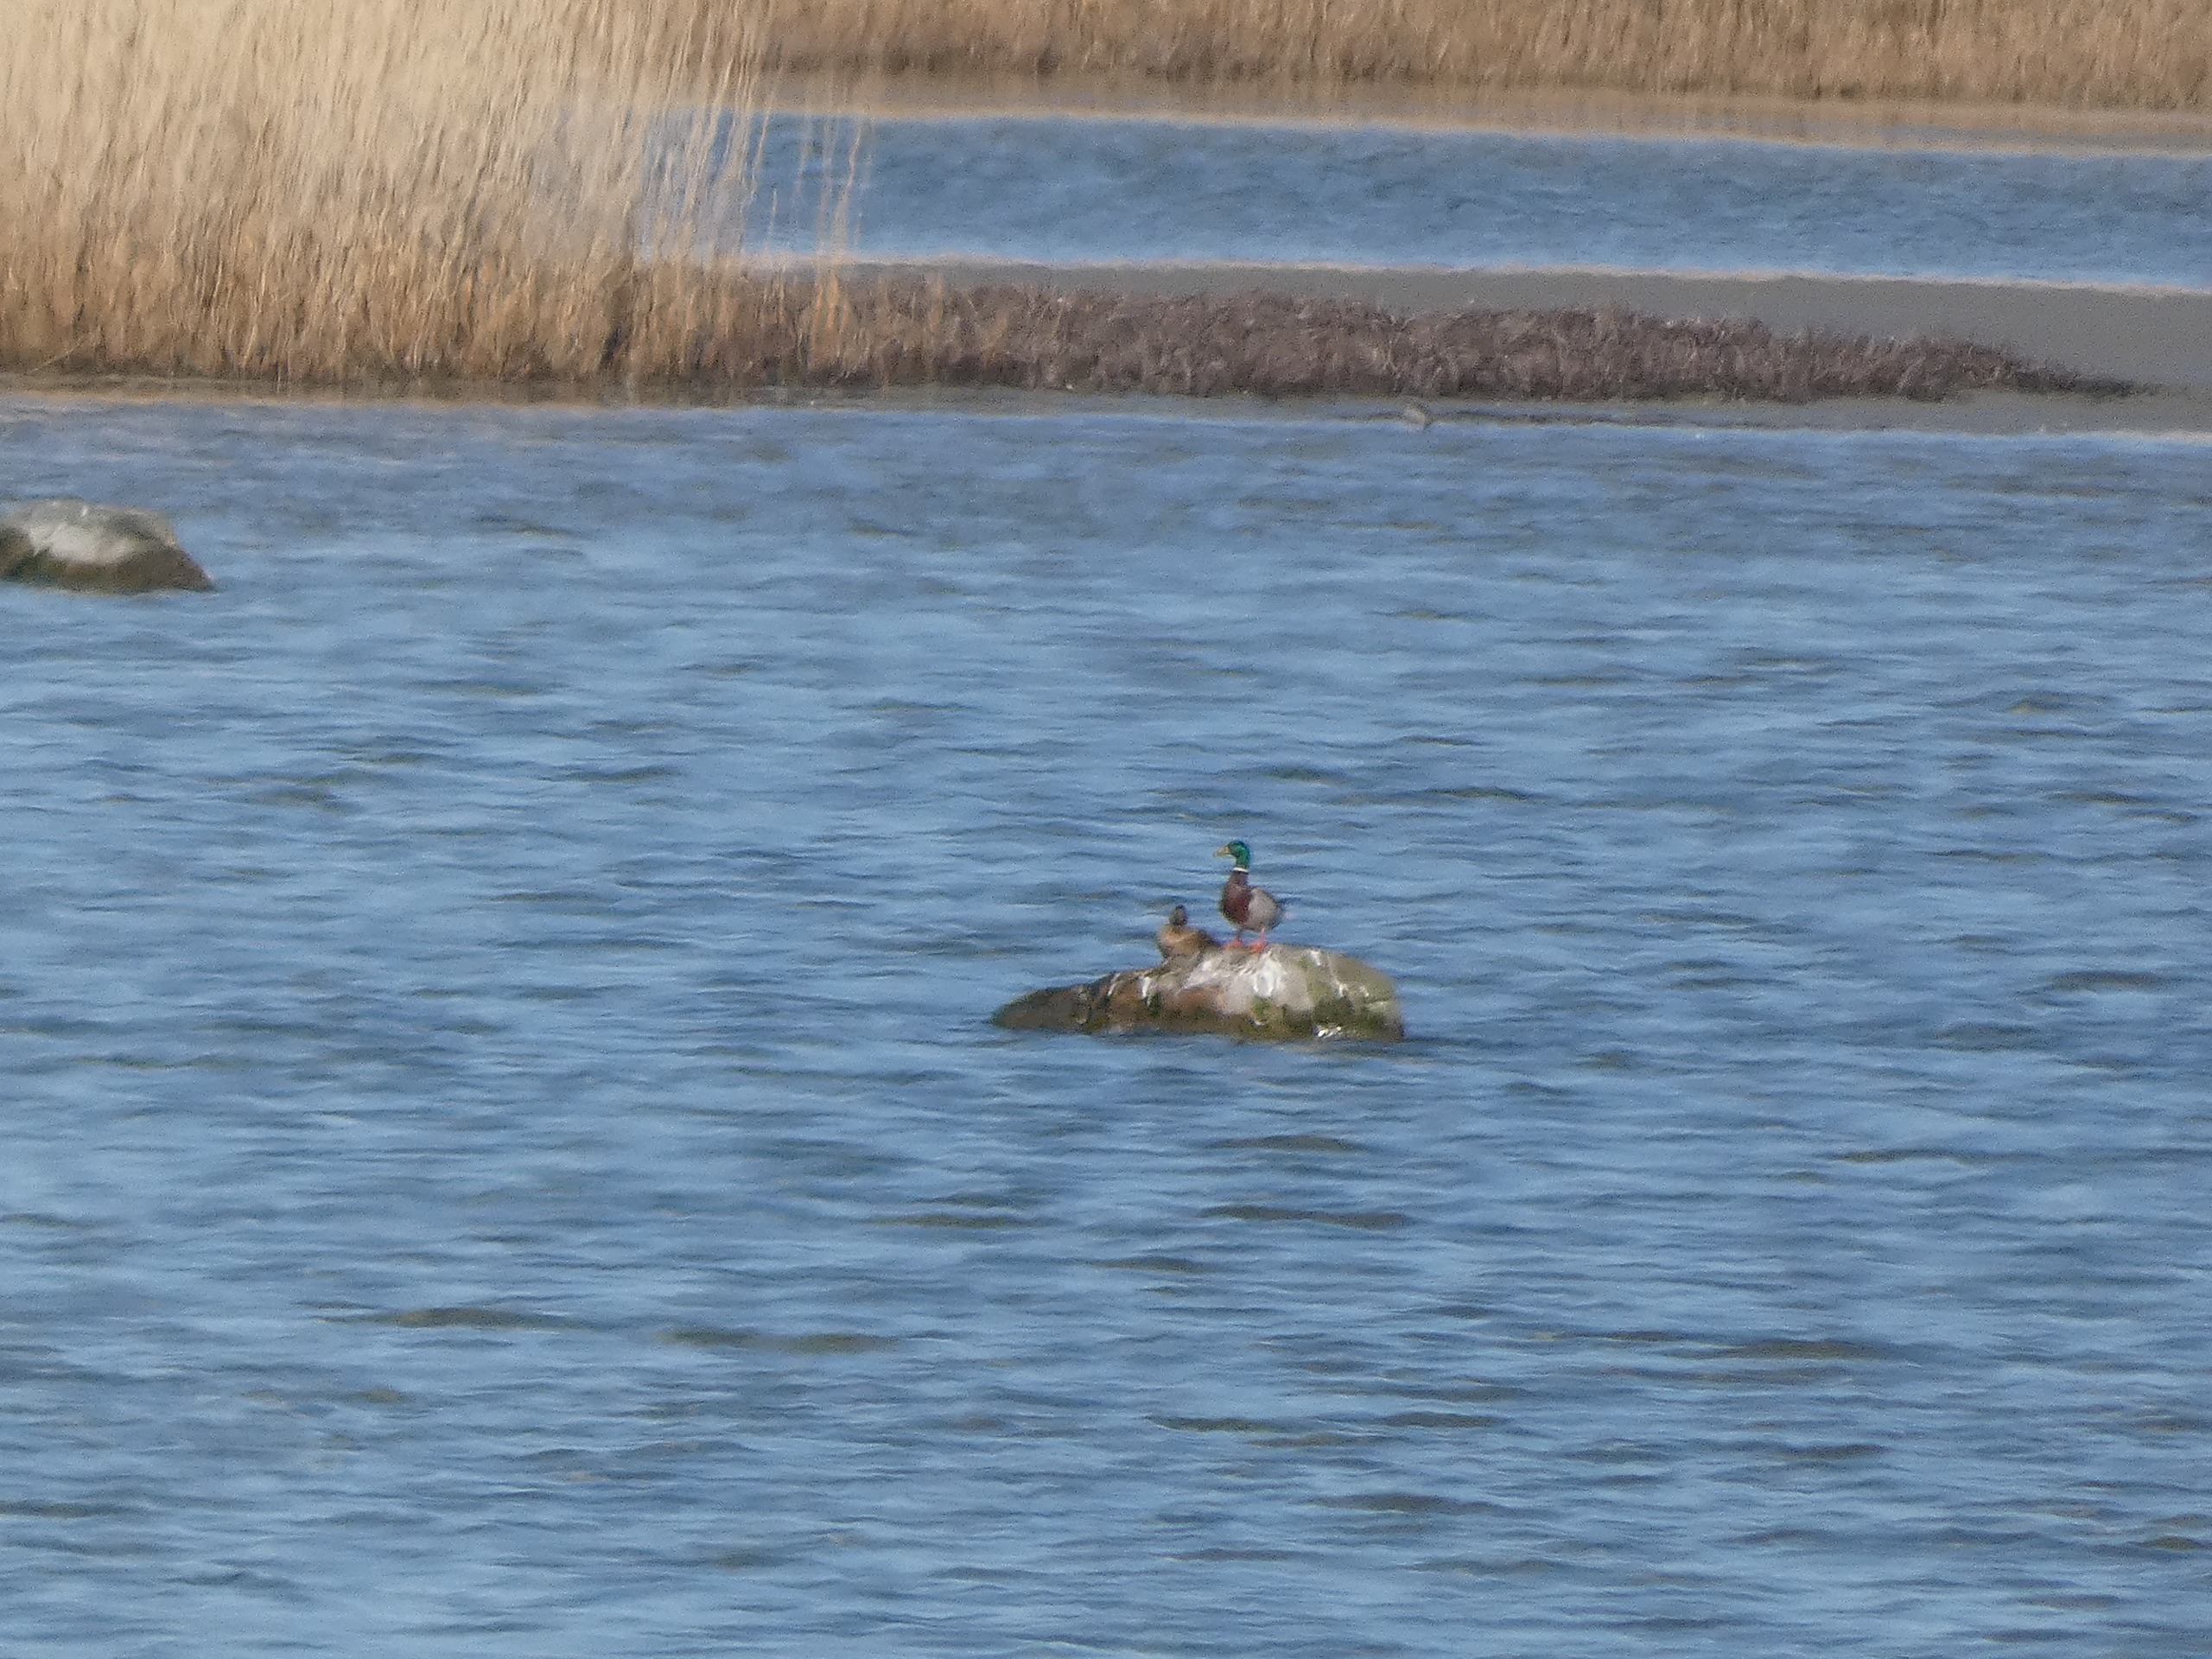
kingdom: Animalia
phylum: Chordata
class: Aves
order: Anseriformes
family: Anatidae
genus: Anas
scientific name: Anas platyrhynchos
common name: Gråand
